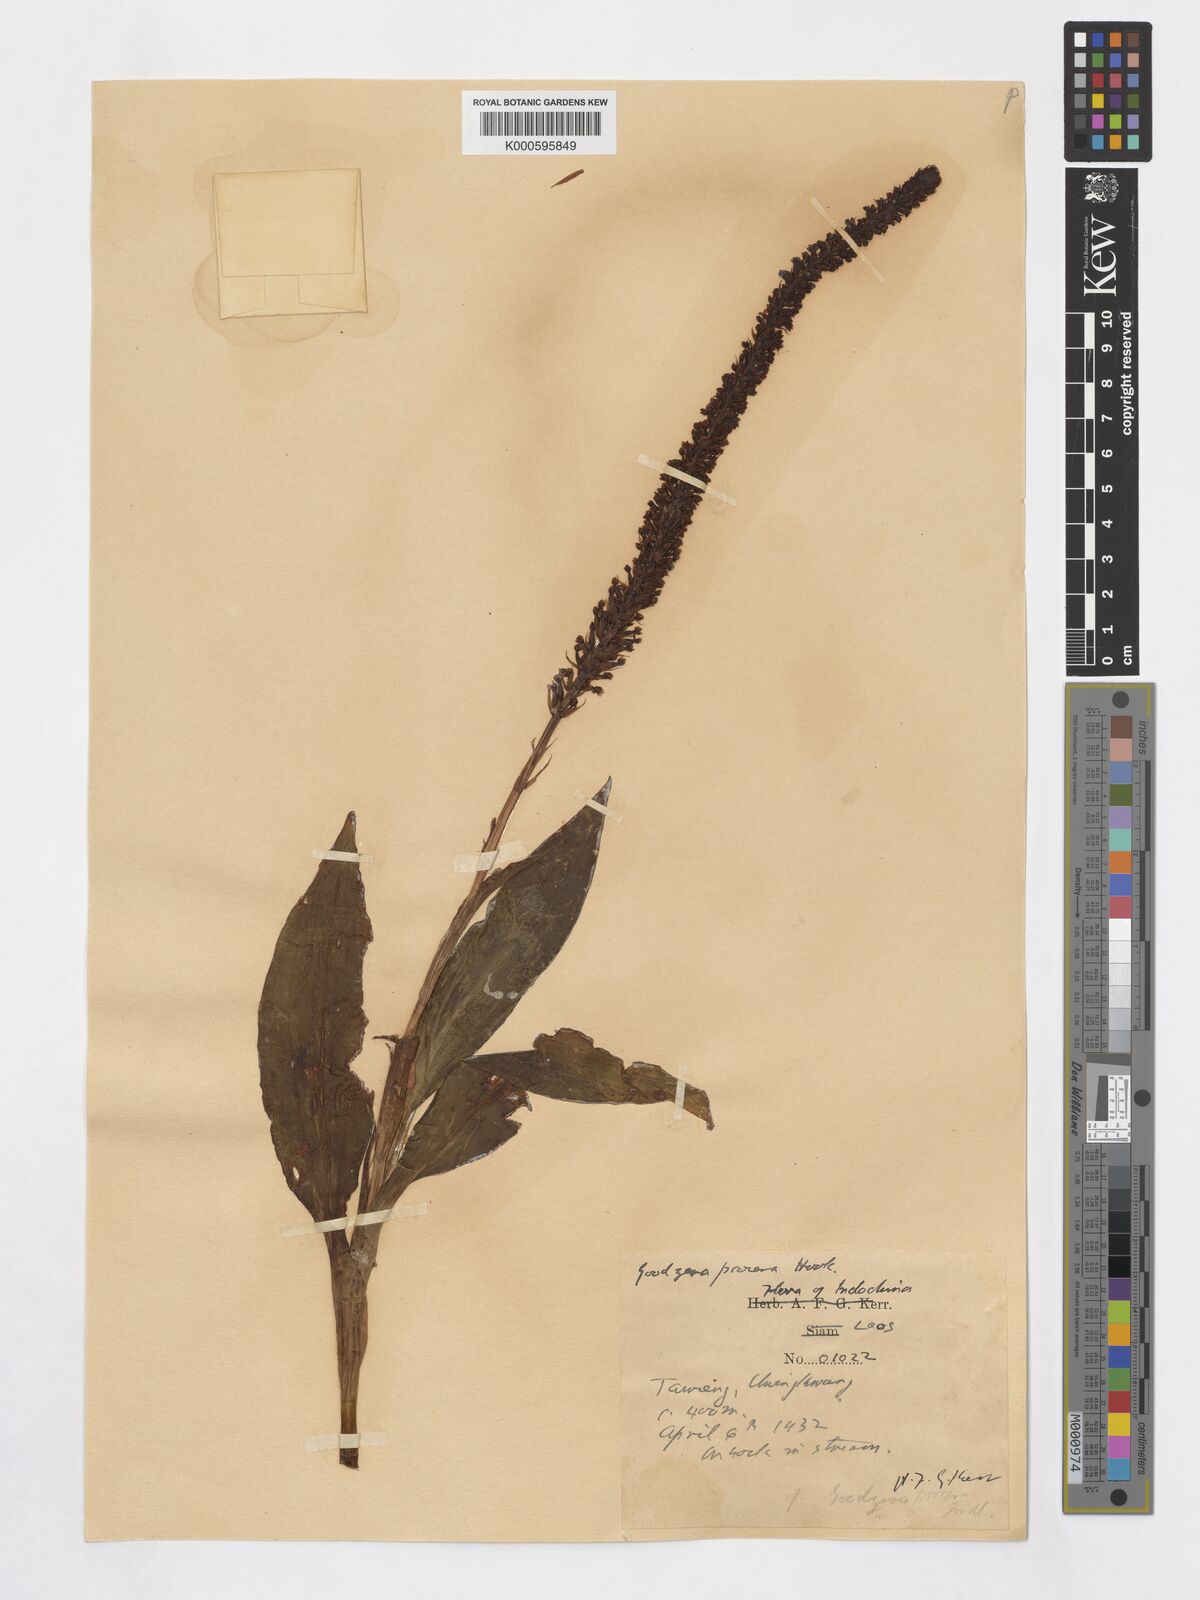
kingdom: Plantae
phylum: Tracheophyta
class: Liliopsida
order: Asparagales
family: Orchidaceae
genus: Goodyera
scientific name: Goodyera procera
